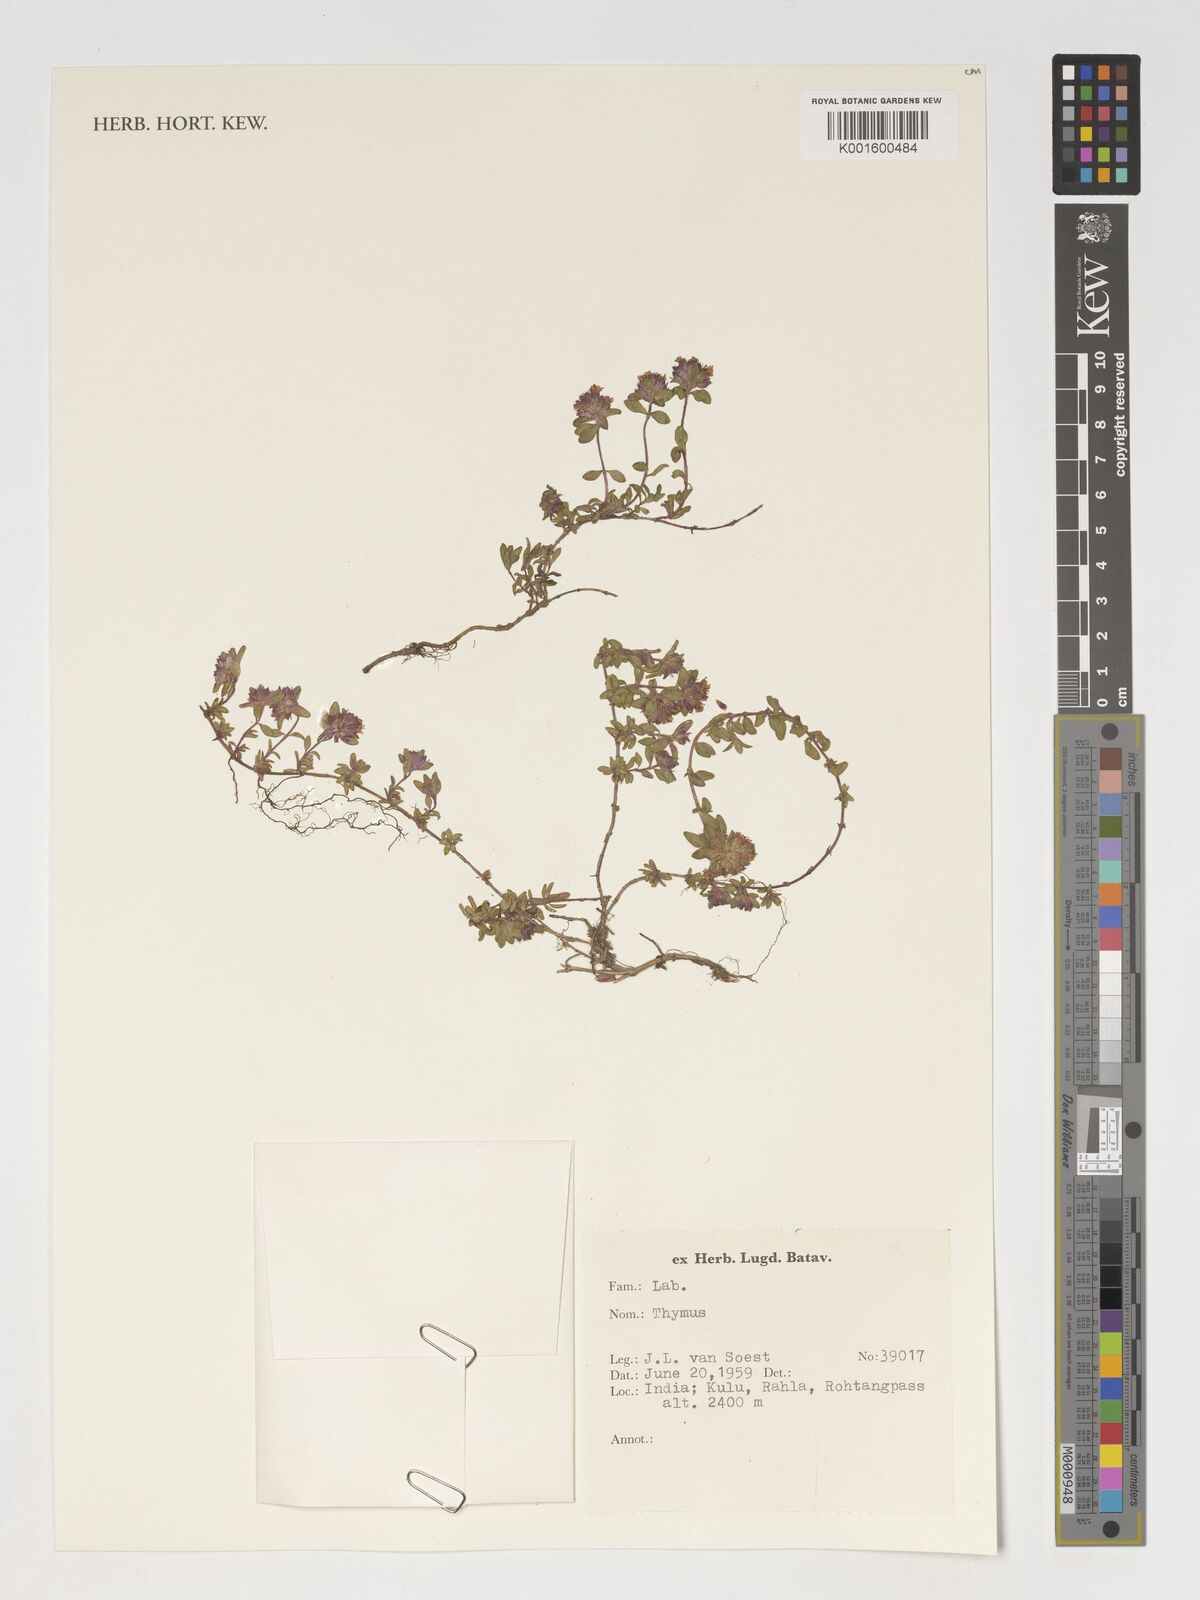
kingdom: Plantae
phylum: Tracheophyta
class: Magnoliopsida
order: Lamiales
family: Lamiaceae
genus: Thymus
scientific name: Thymus
